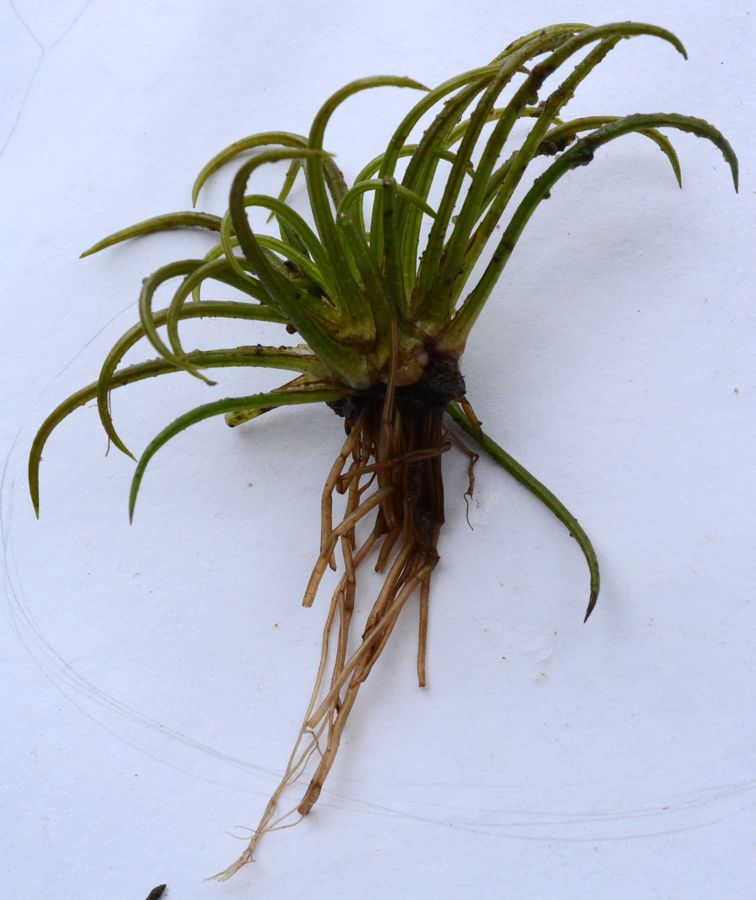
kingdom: Plantae
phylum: Tracheophyta
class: Lycopodiopsida
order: Isoetales
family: Isoetaceae
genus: Isoetes
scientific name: Isoetes lacustris
